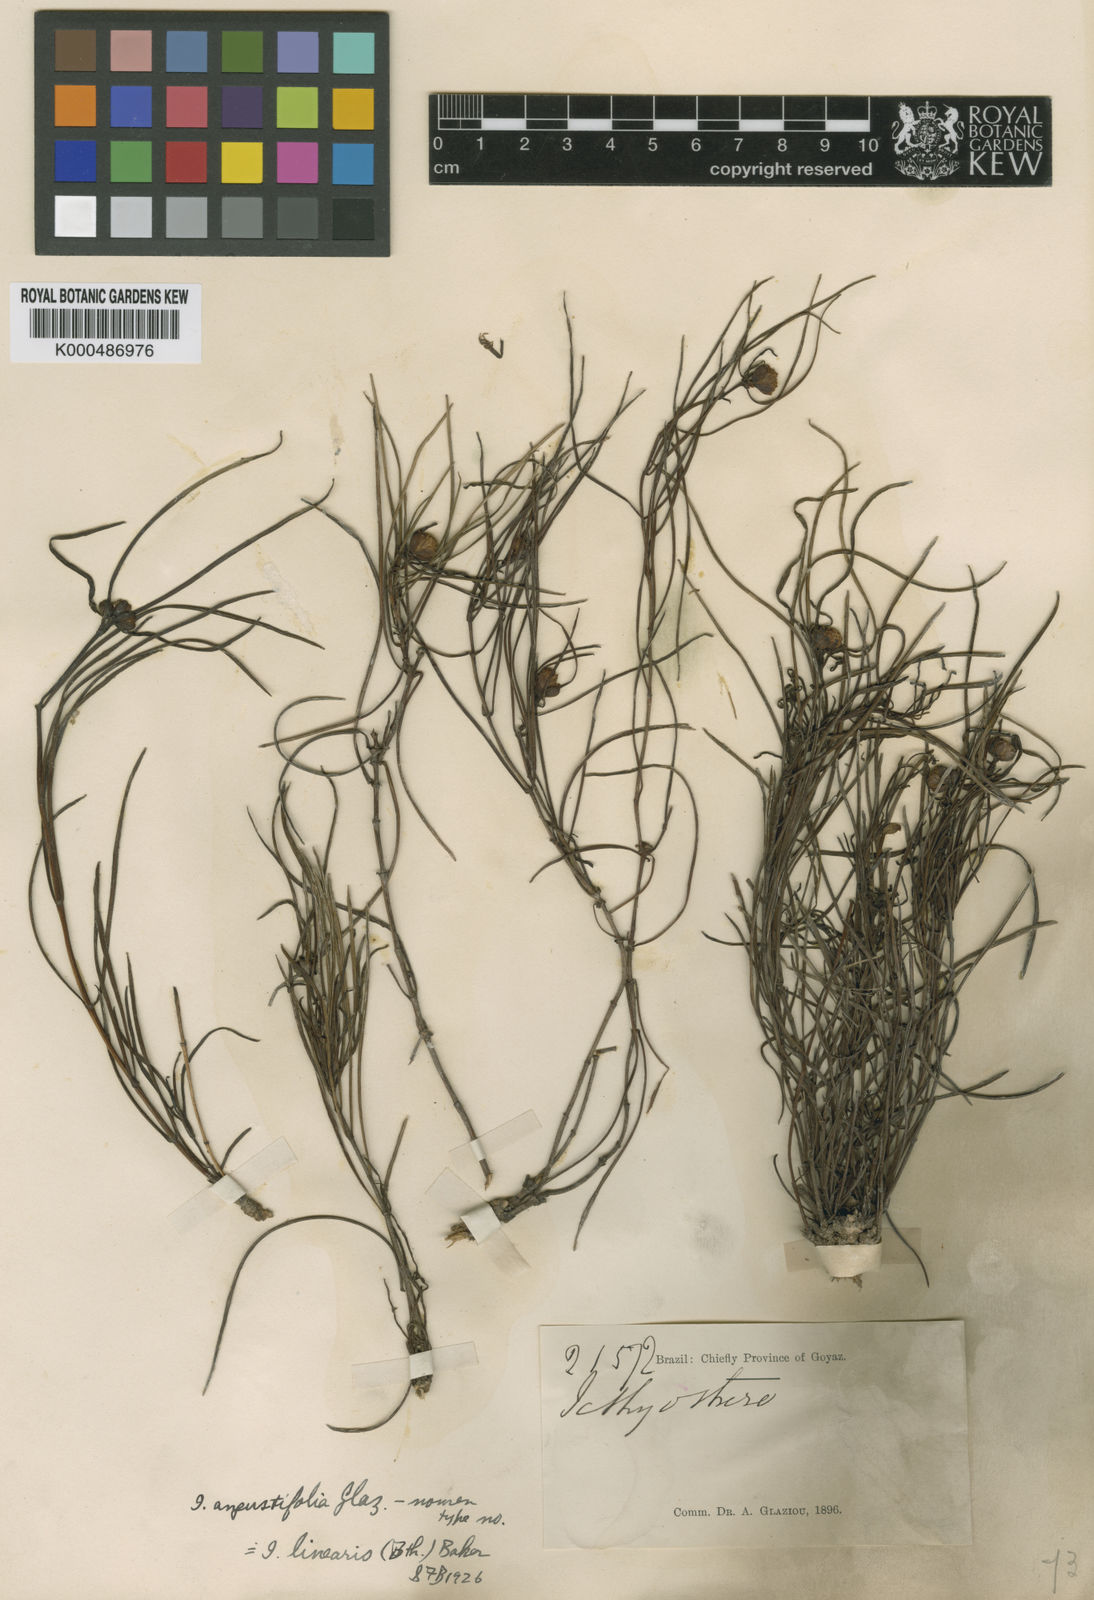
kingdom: Plantae
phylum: Tracheophyta
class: Magnoliopsida
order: Asterales
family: Asteraceae
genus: Ichthyothere
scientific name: Ichthyothere linearis
